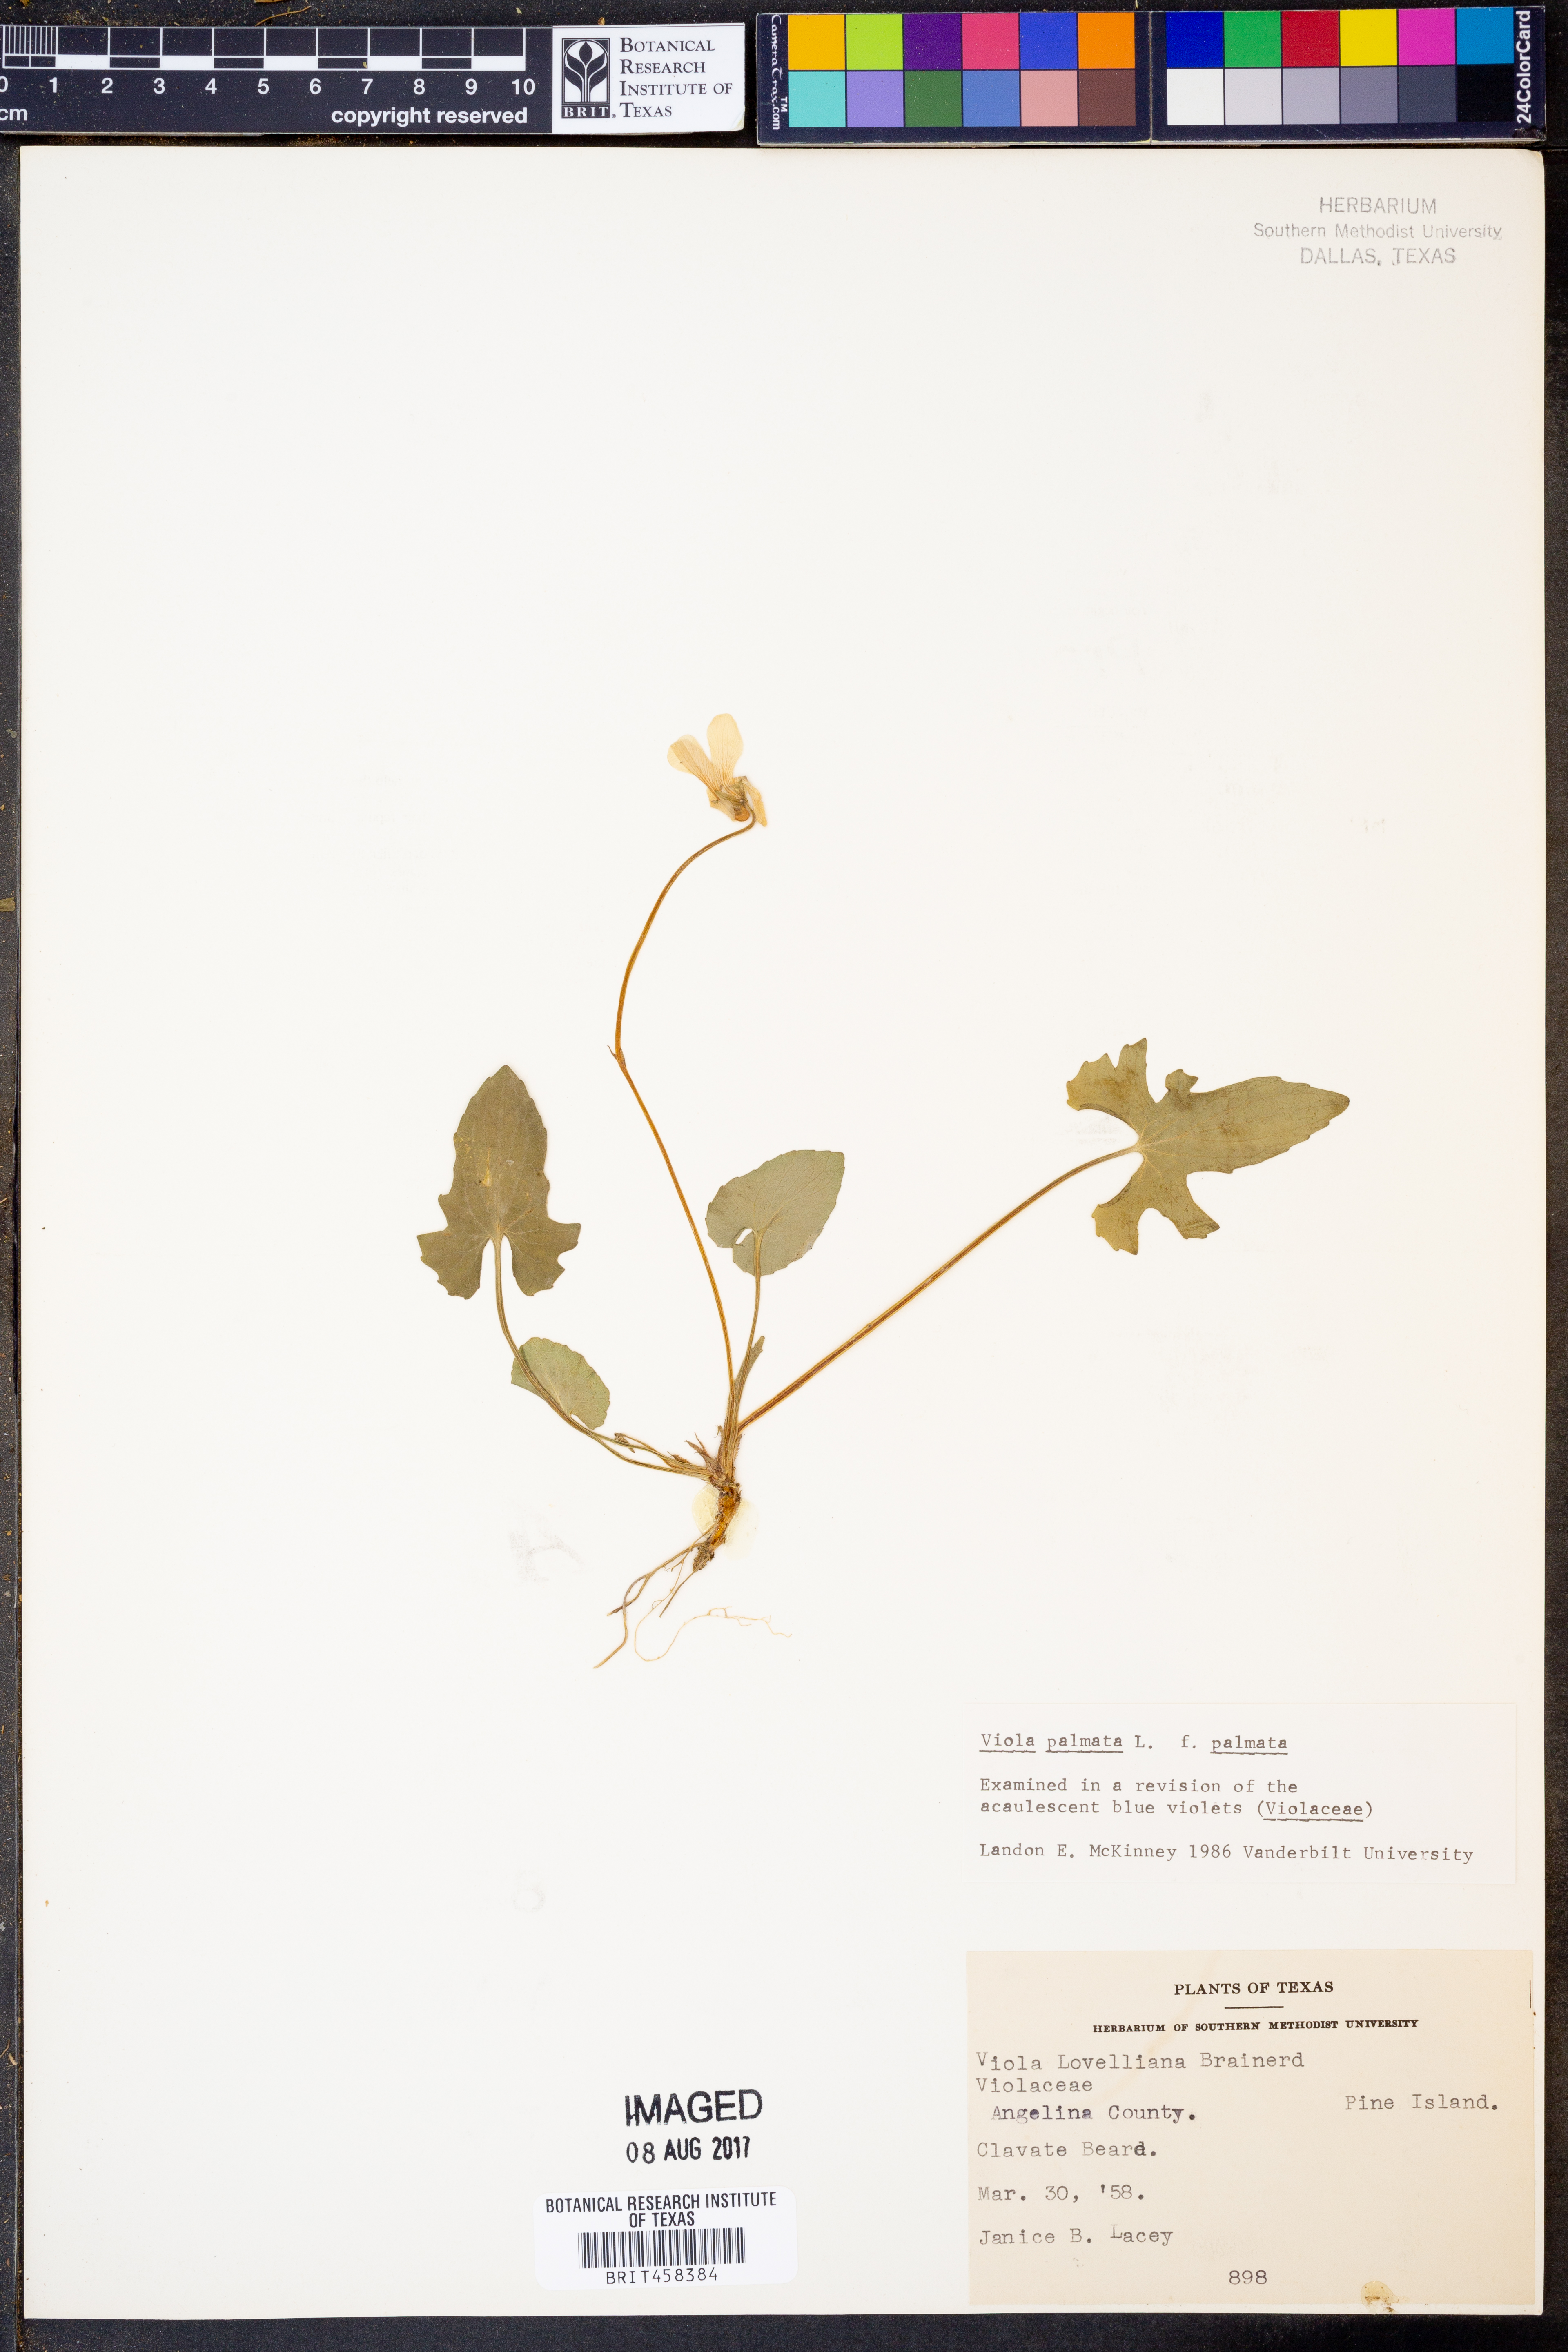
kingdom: Plantae
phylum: Tracheophyta
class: Magnoliopsida
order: Malpighiales
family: Violaceae
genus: Viola
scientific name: Viola palmata
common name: Early blue violet
